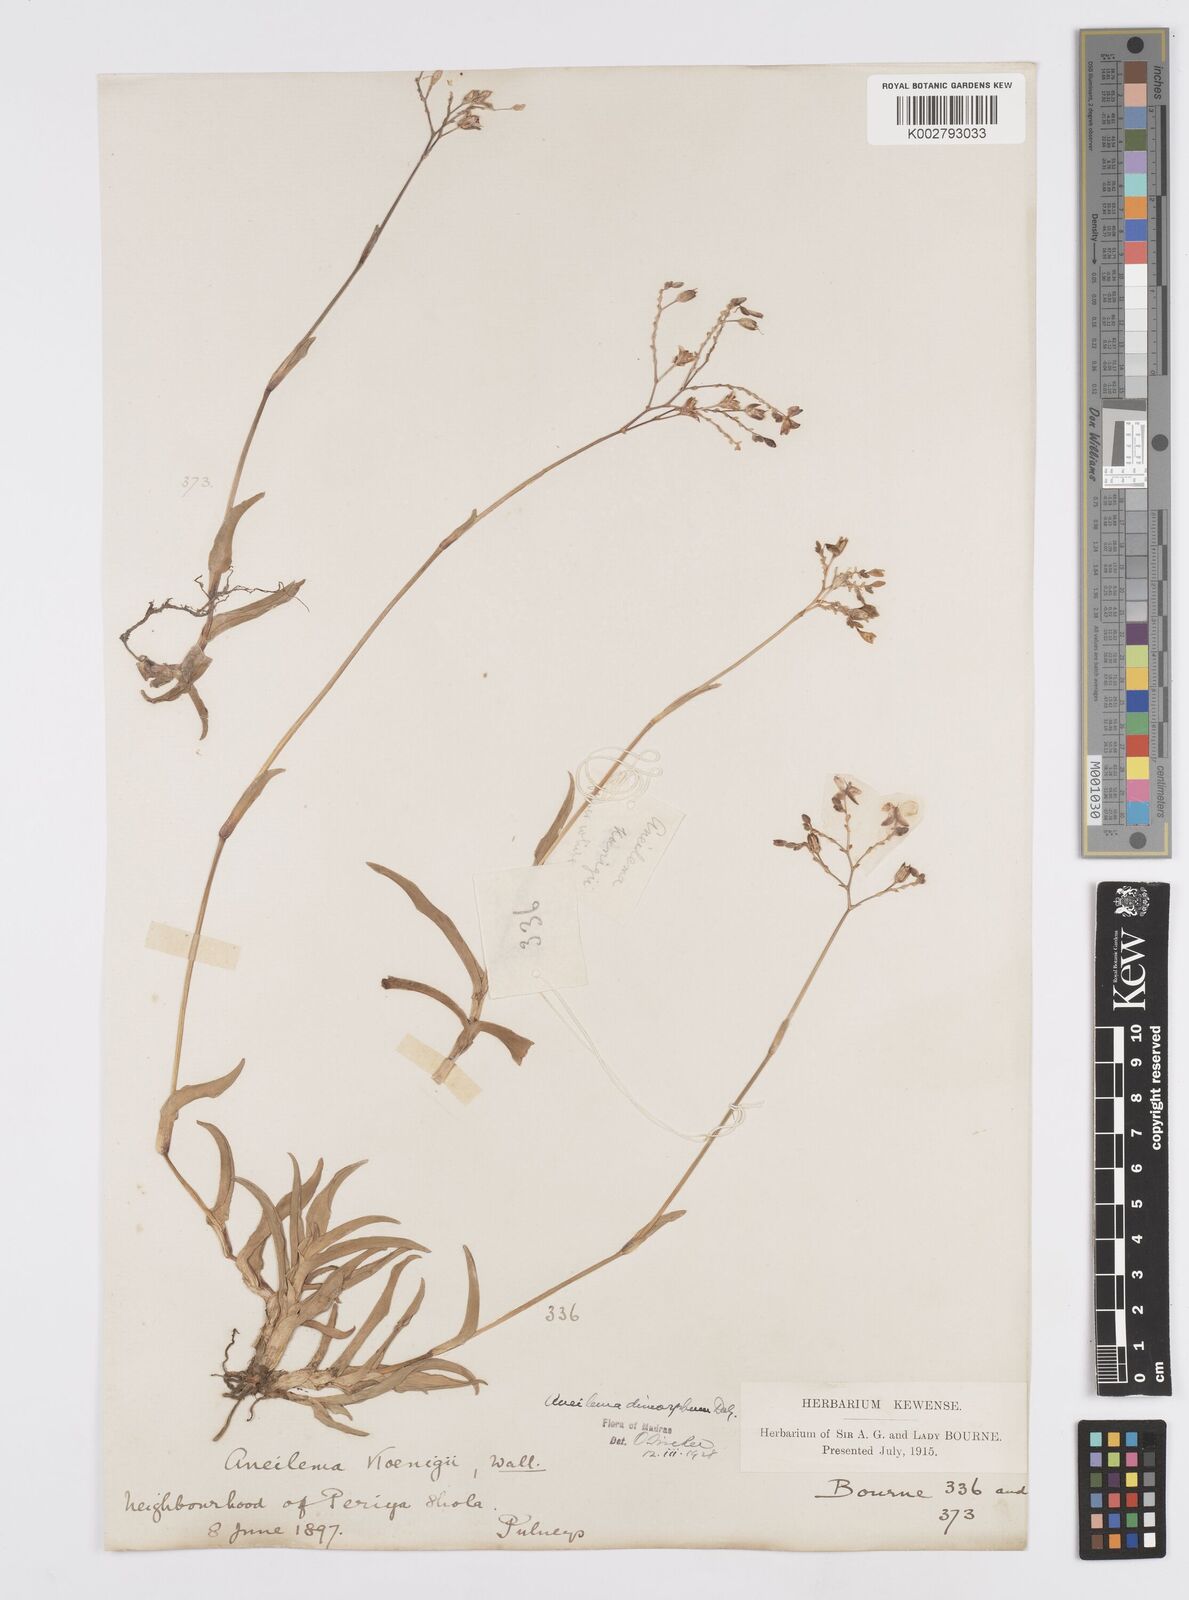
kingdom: Plantae
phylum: Tracheophyta
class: Liliopsida
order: Commelinales
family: Commelinaceae
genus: Murdannia
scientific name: Murdannia dimorpha
